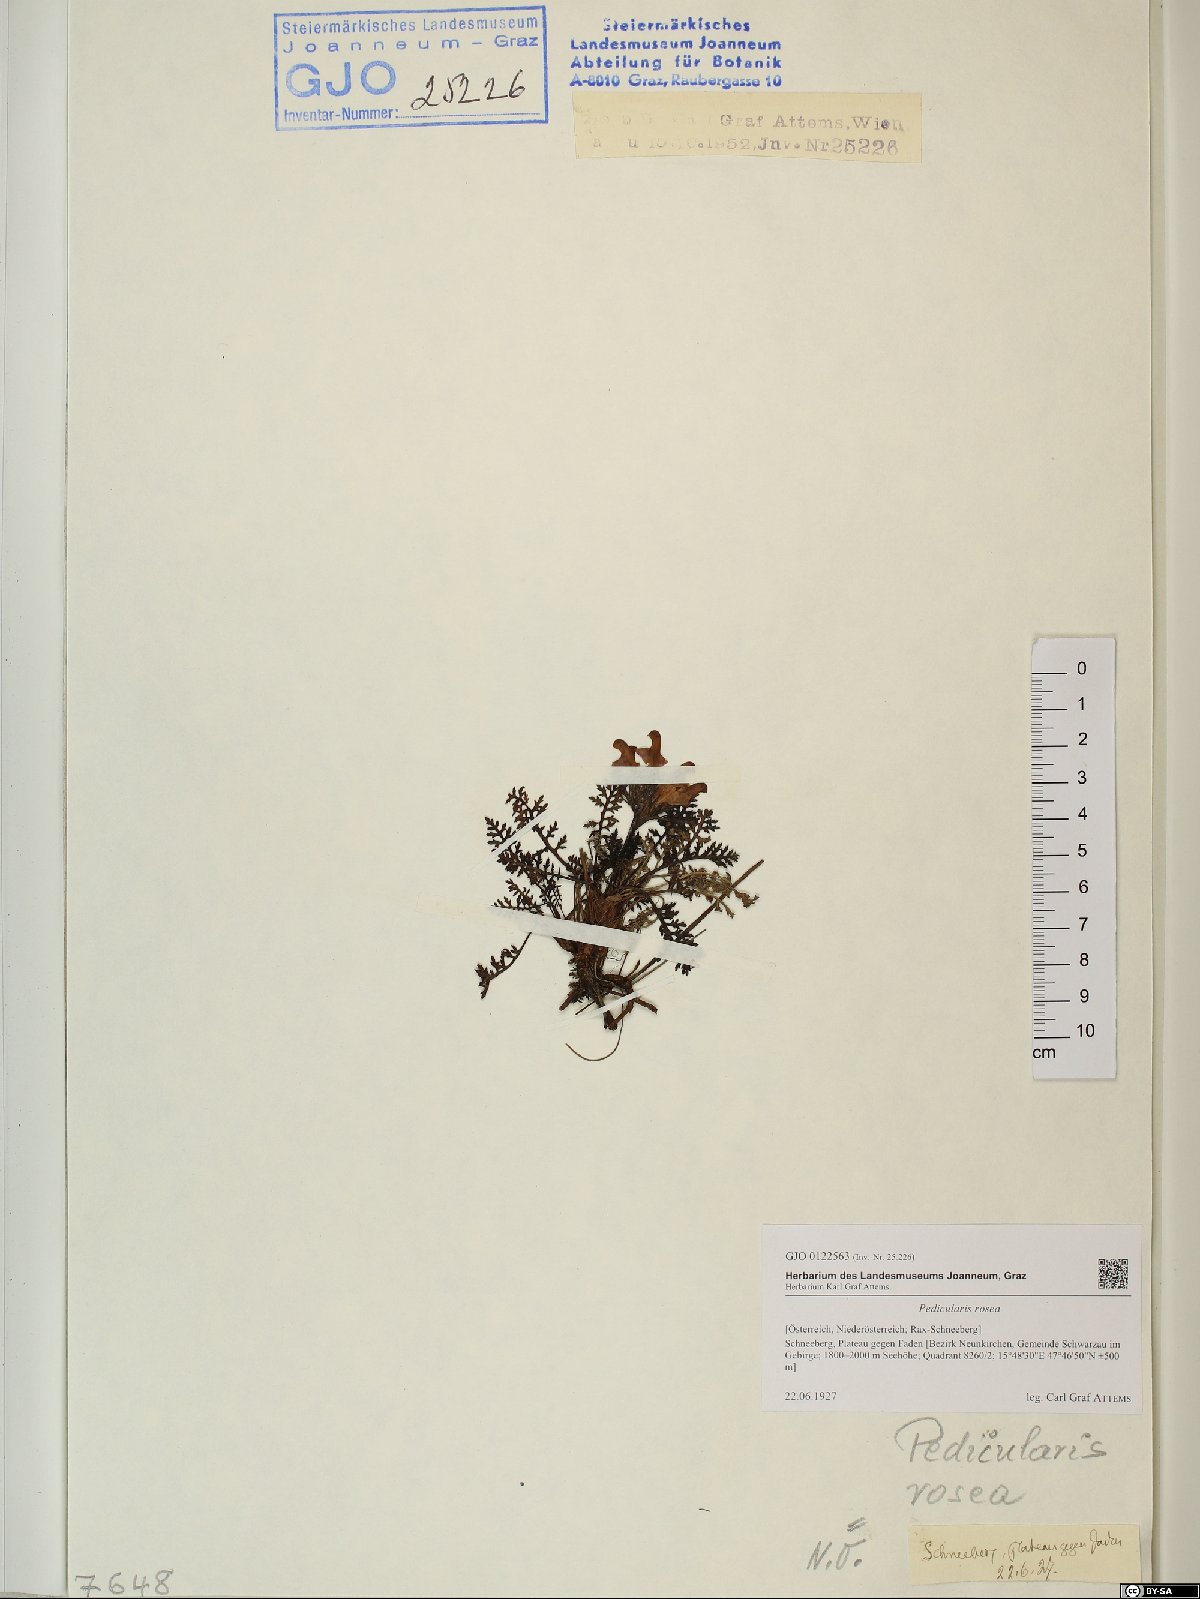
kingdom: Plantae
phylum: Tracheophyta
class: Magnoliopsida
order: Lamiales
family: Orobanchaceae
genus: Pedicularis
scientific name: Pedicularis rosea
